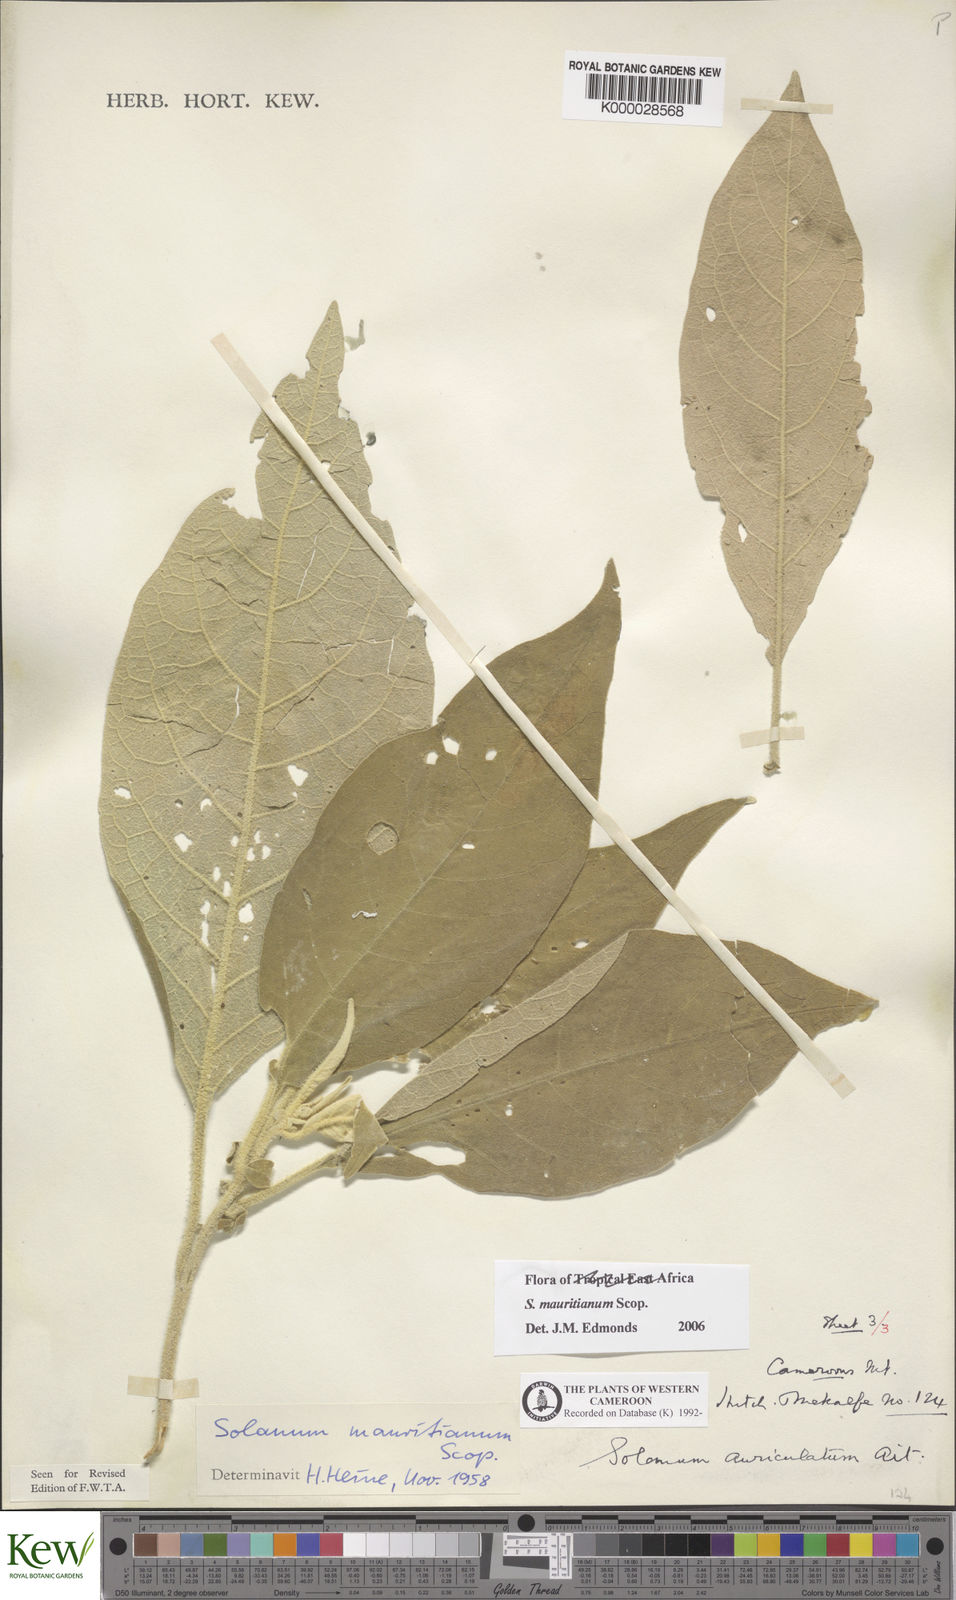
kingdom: Plantae
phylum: Tracheophyta
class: Magnoliopsida
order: Solanales
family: Solanaceae
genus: Solanum
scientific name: Solanum mauritianum
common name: Earleaf nightshade
